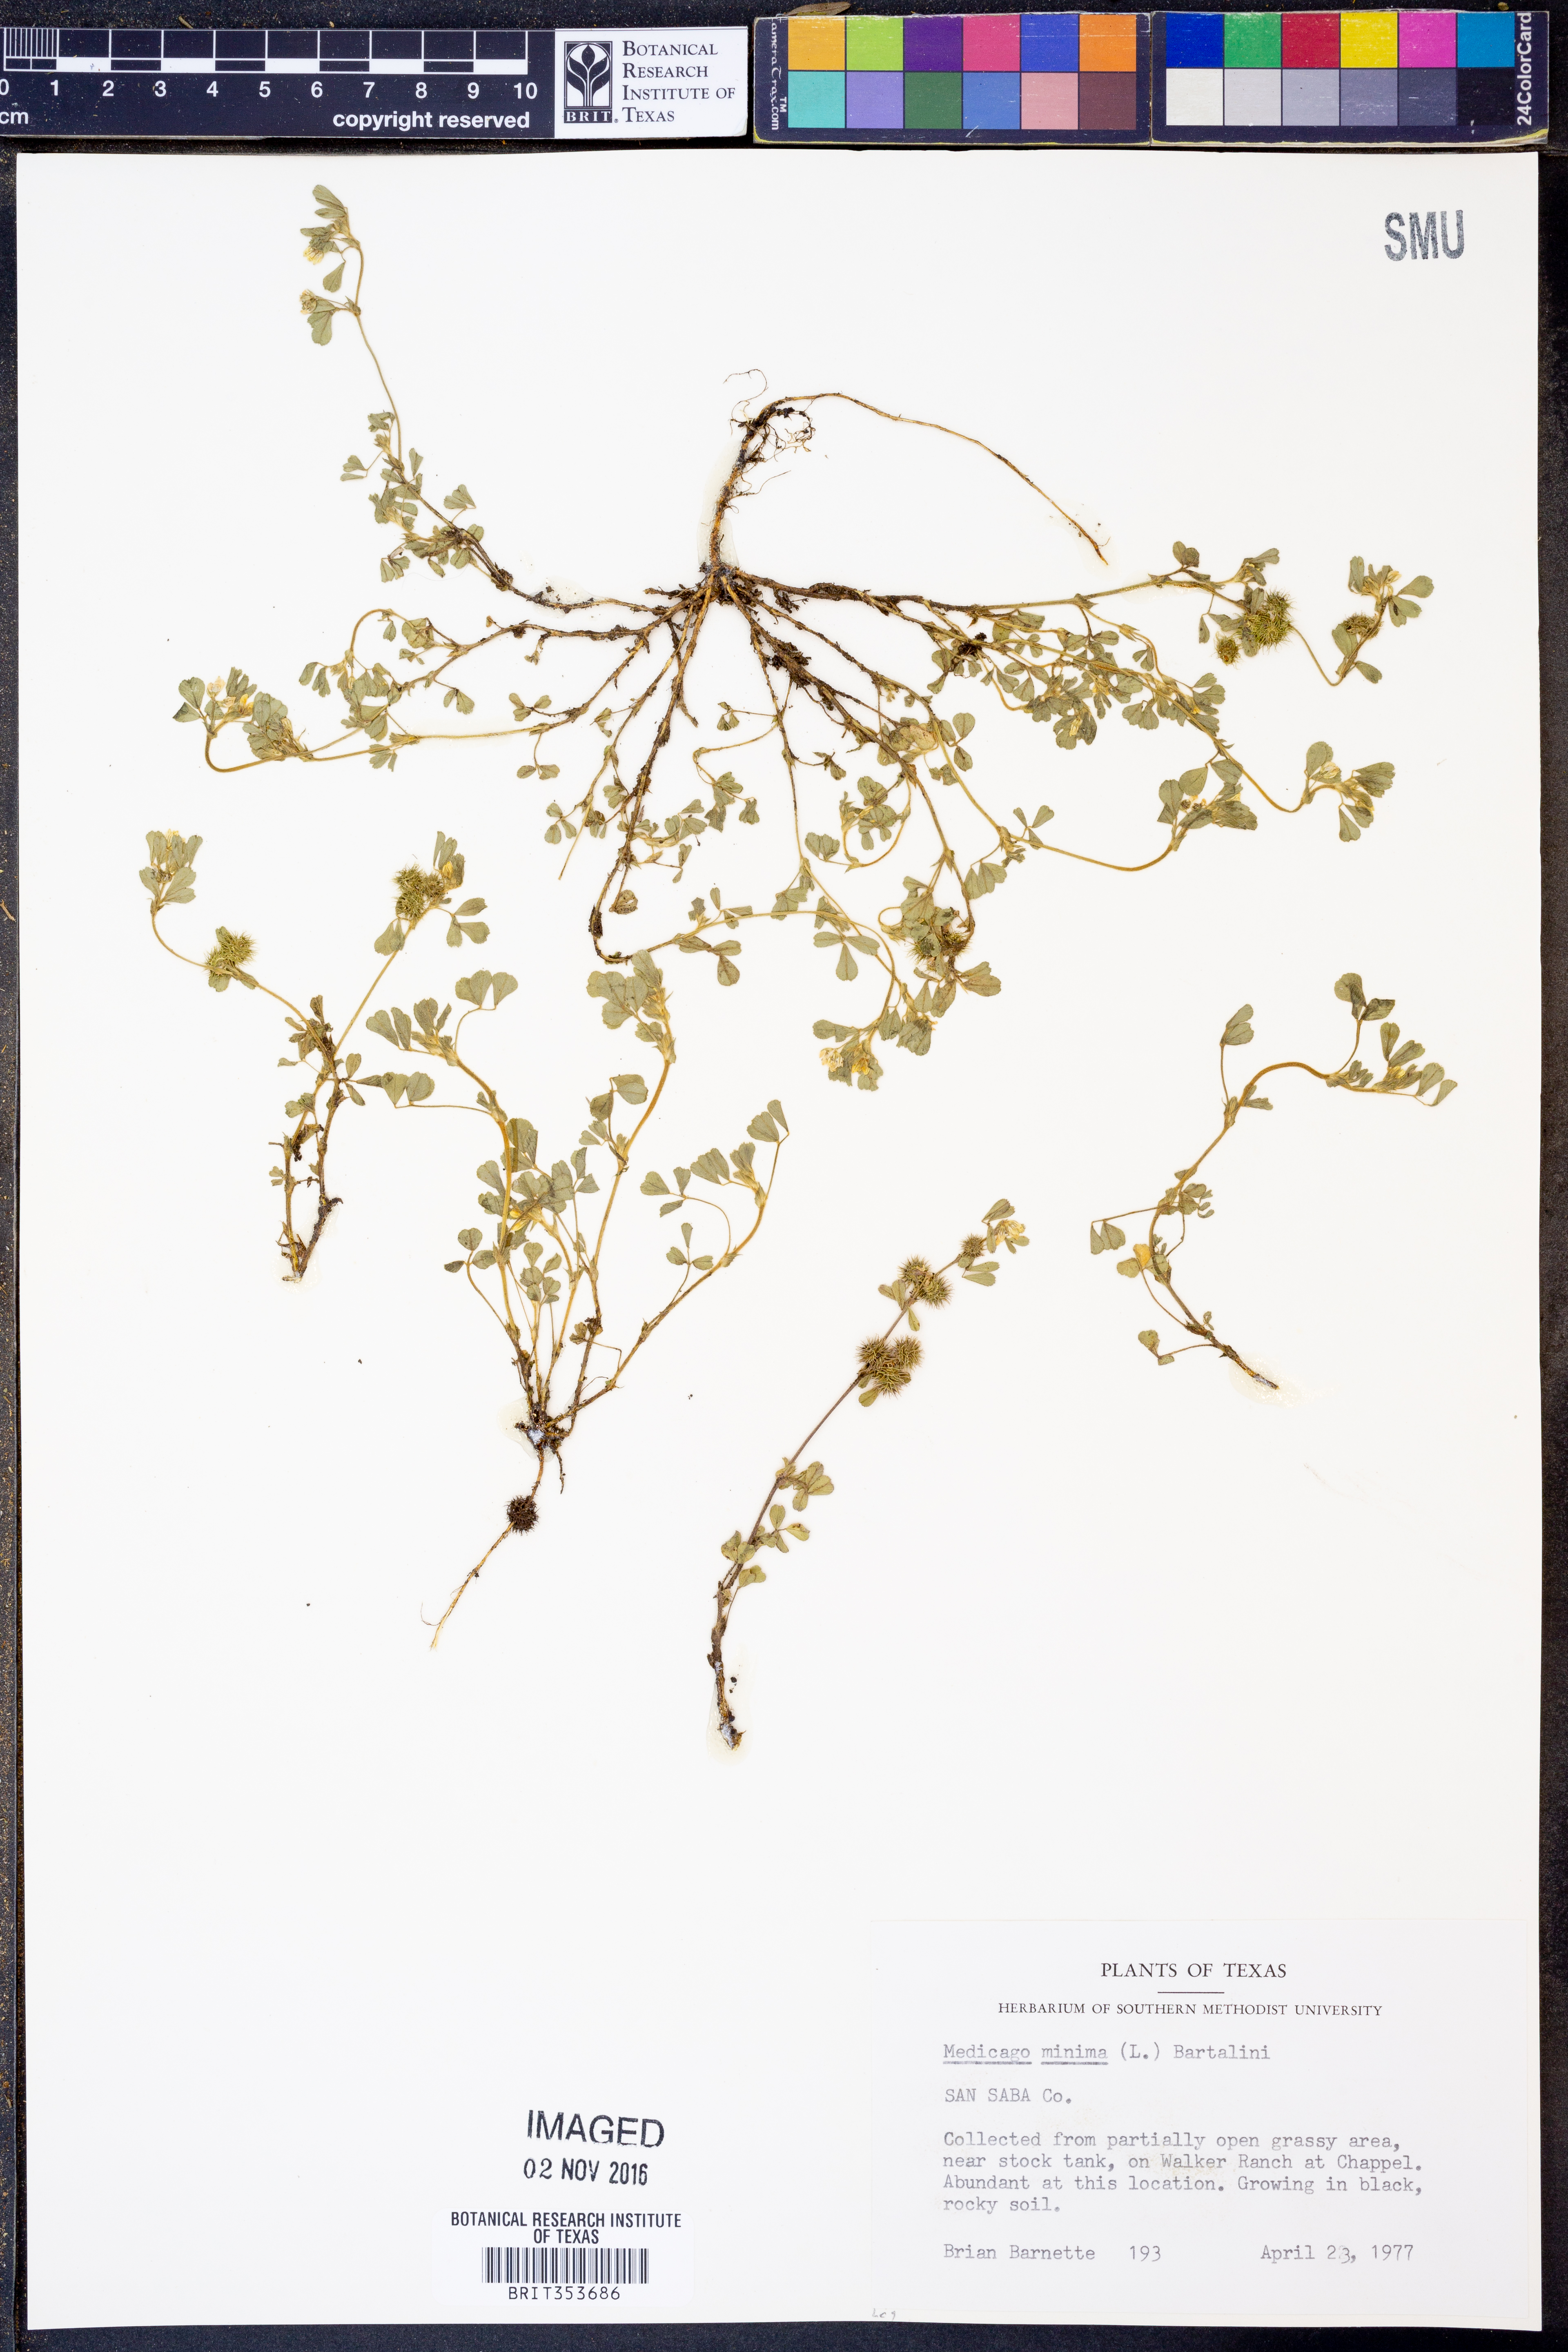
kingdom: Plantae
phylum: Tracheophyta
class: Magnoliopsida
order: Fabales
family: Fabaceae
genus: Medicago
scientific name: Medicago minima
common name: Little bur-clover
